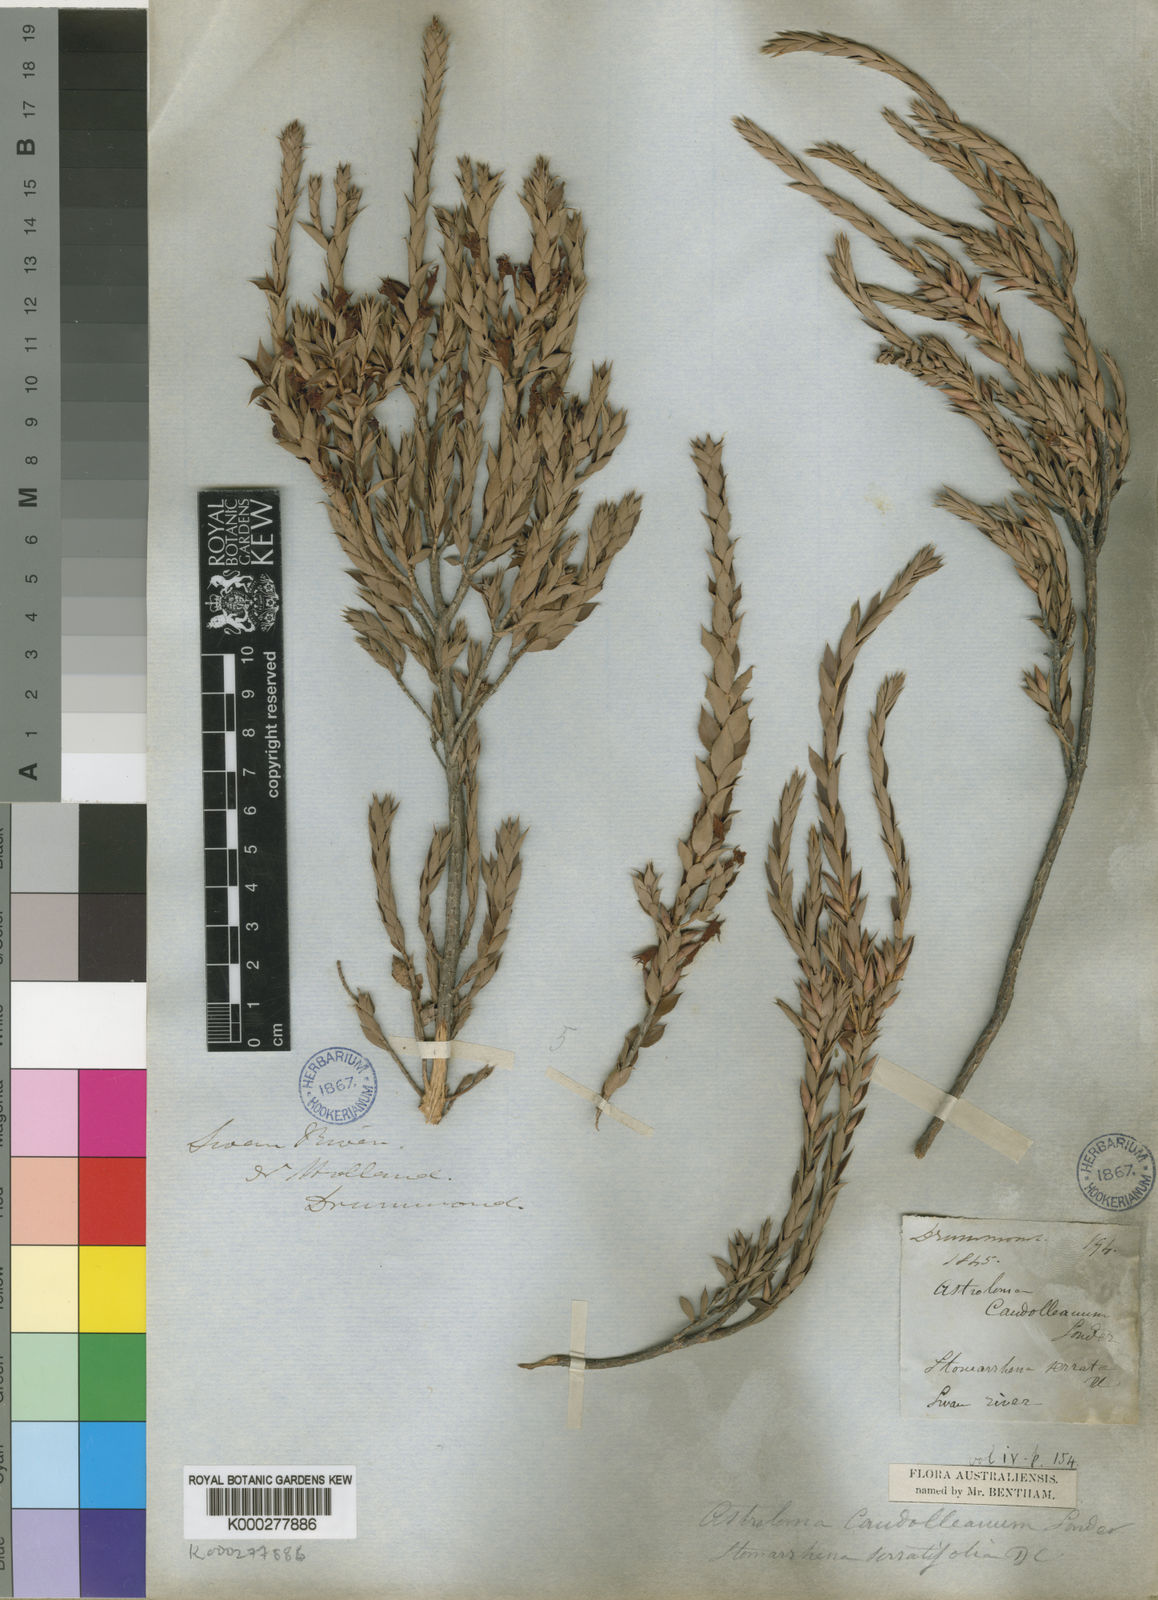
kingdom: Plantae
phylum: Tracheophyta
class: Magnoliopsida
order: Ericales
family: Ericaceae
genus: Styphelia
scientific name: Styphelia serratifolia
